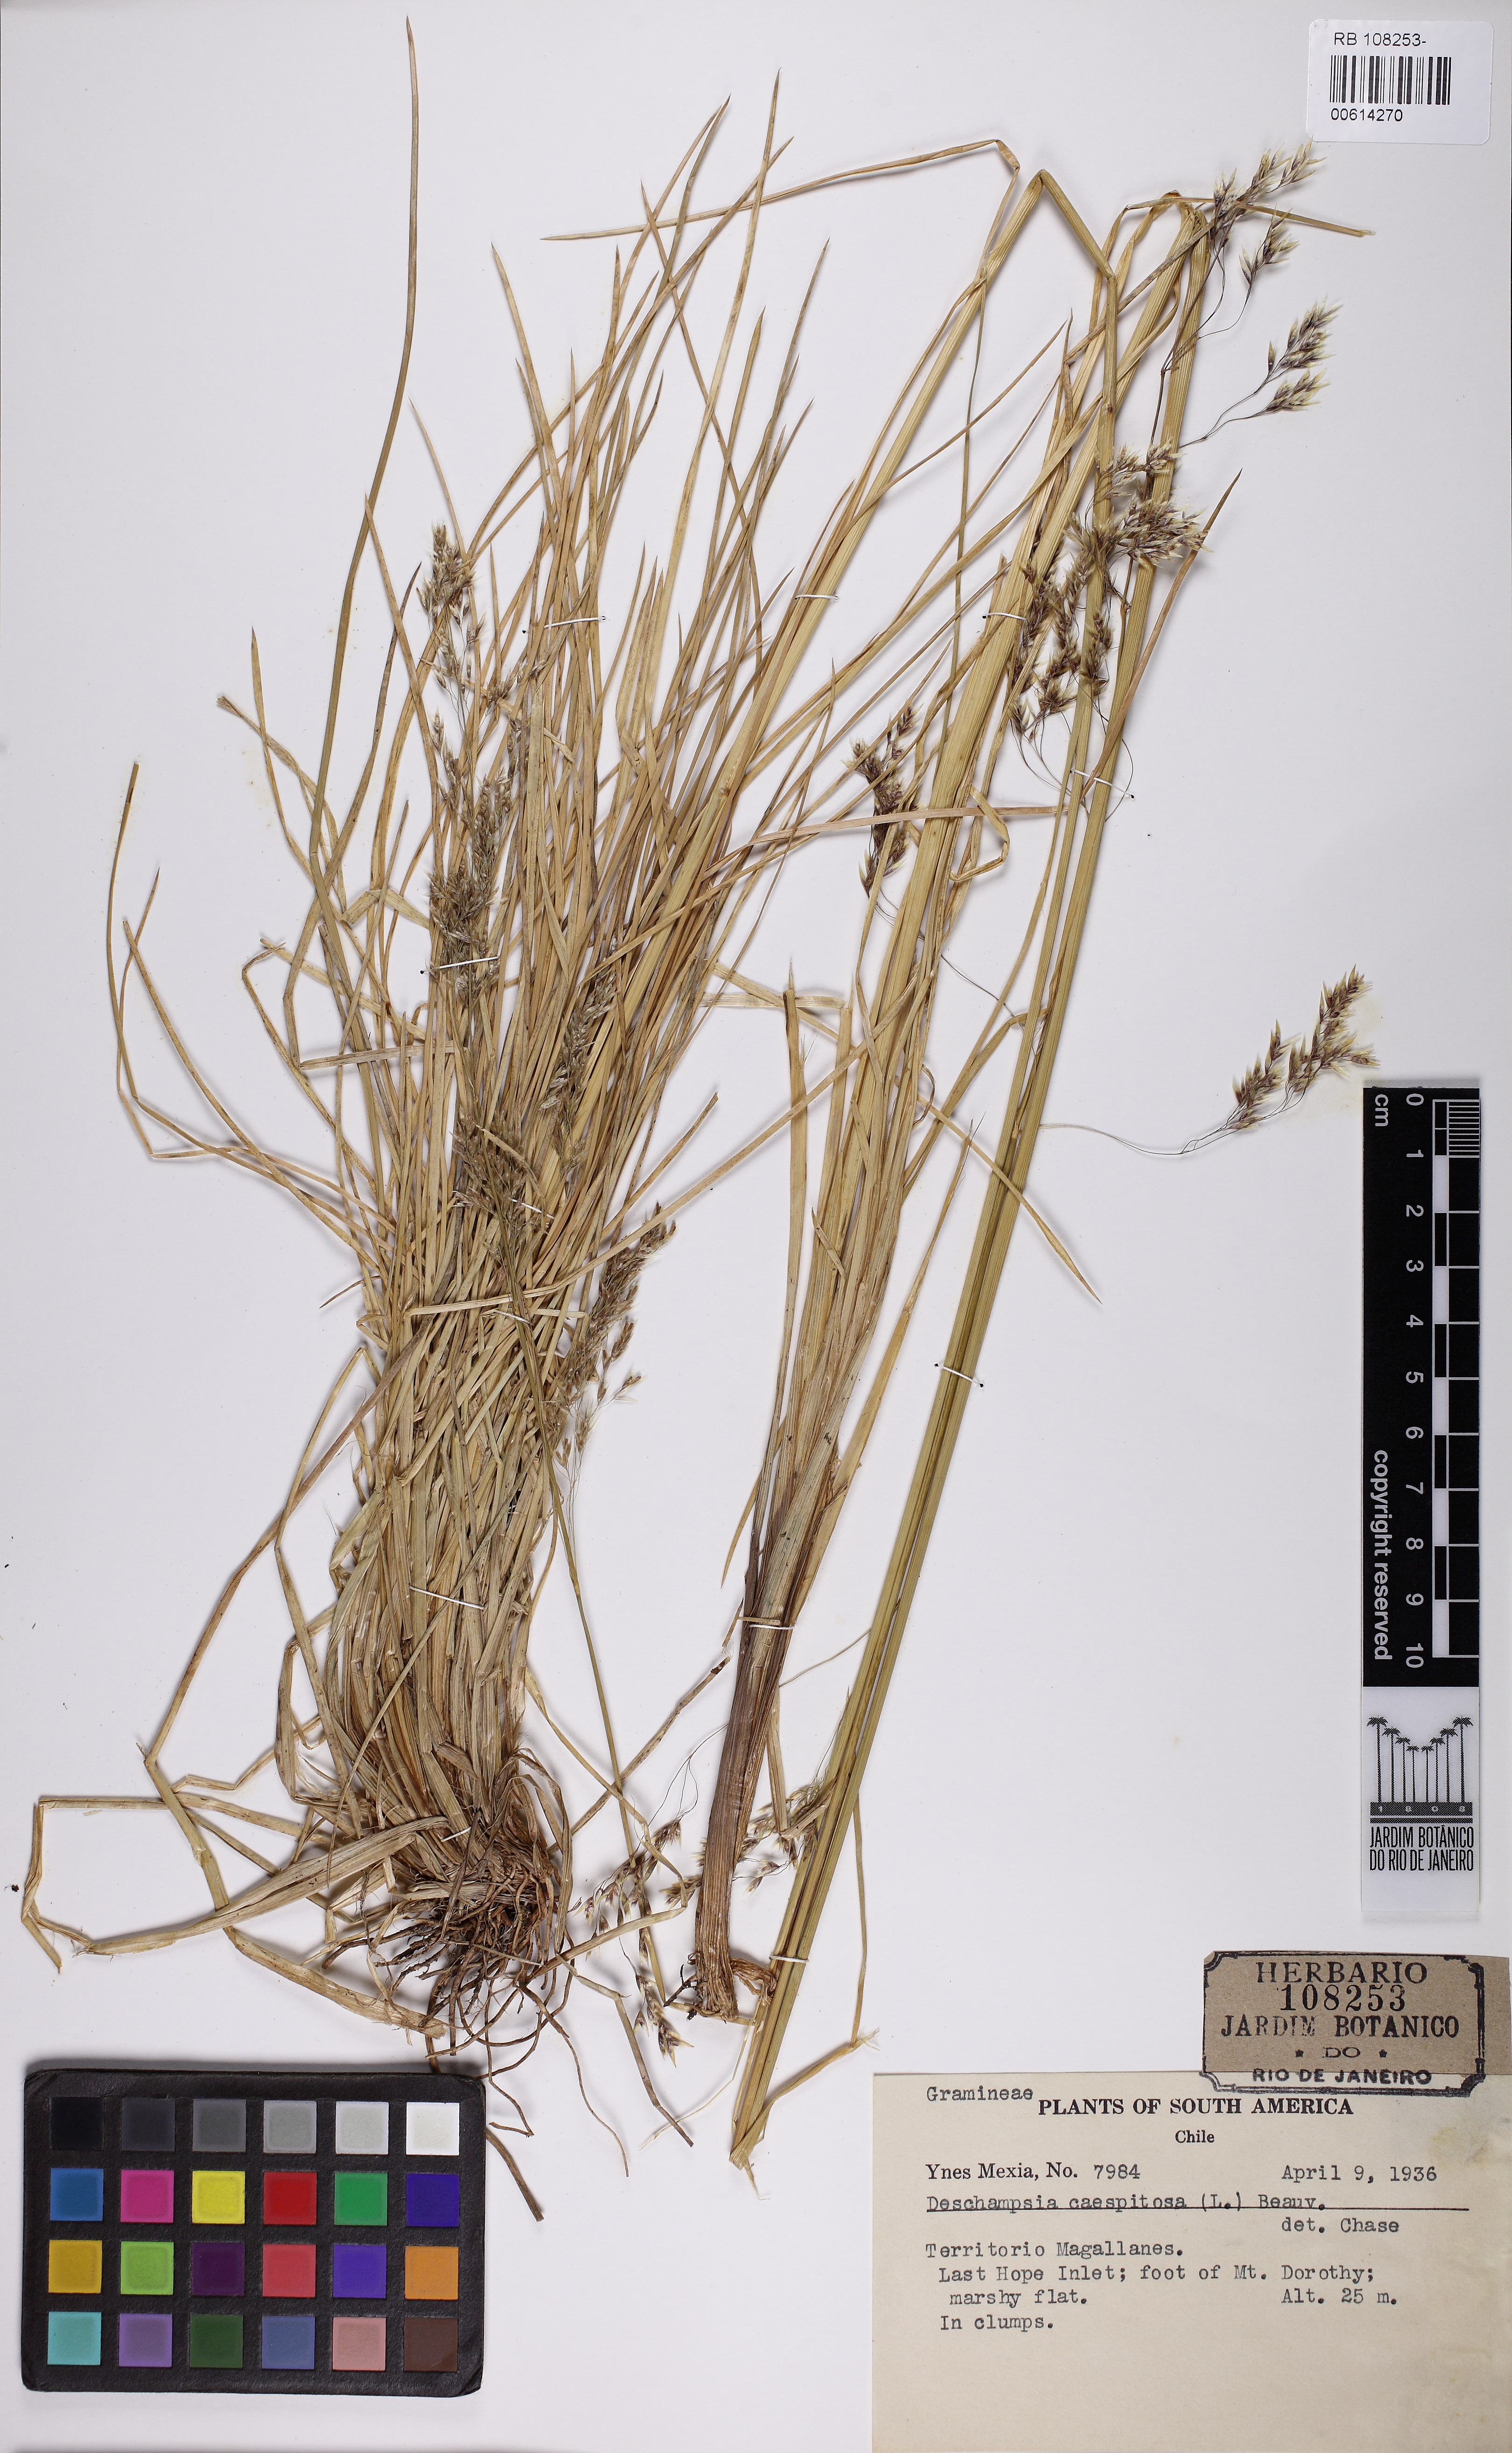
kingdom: Plantae
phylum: Tracheophyta
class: Liliopsida
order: Poales
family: Poaceae
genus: Deschampsia
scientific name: Deschampsia cespitosa
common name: Tufted hair-grass
